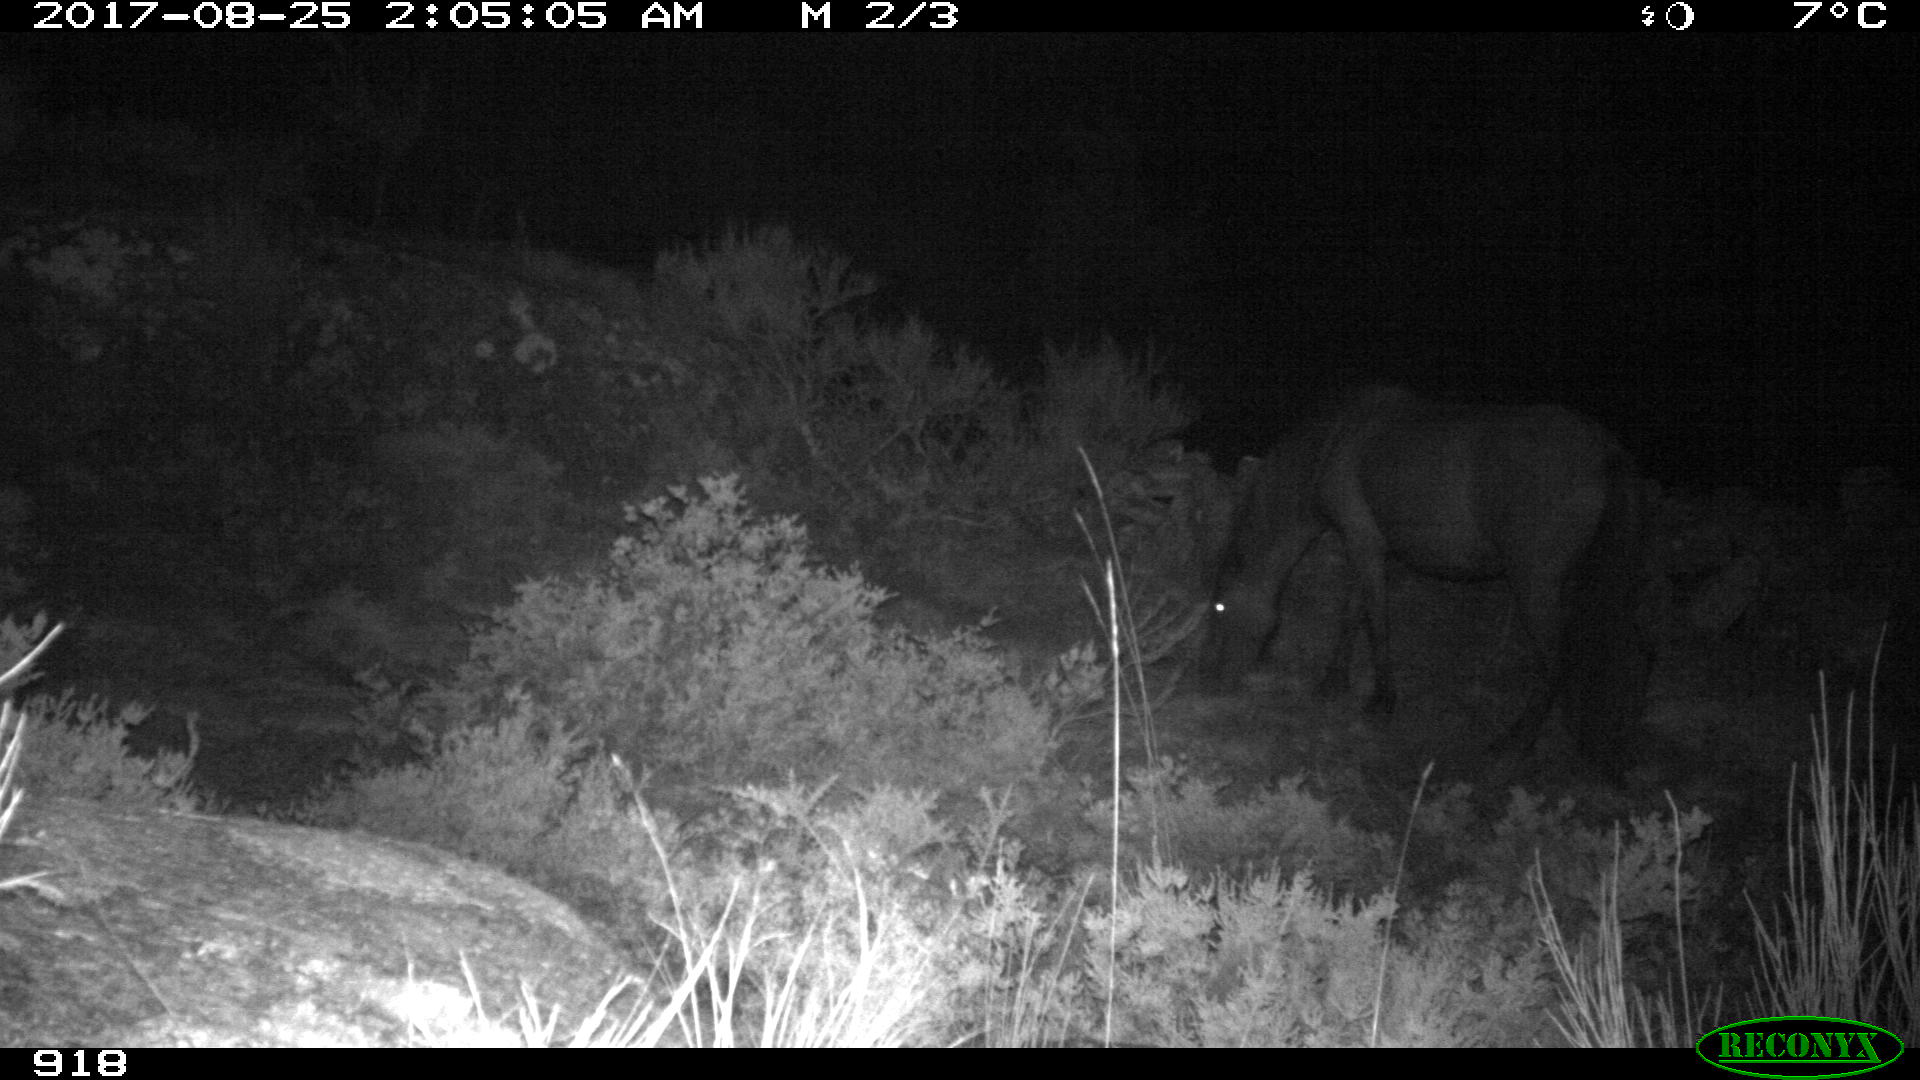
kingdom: Animalia
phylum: Chordata
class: Mammalia
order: Perissodactyla
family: Equidae
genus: Equus
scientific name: Equus caballus
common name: Horse
